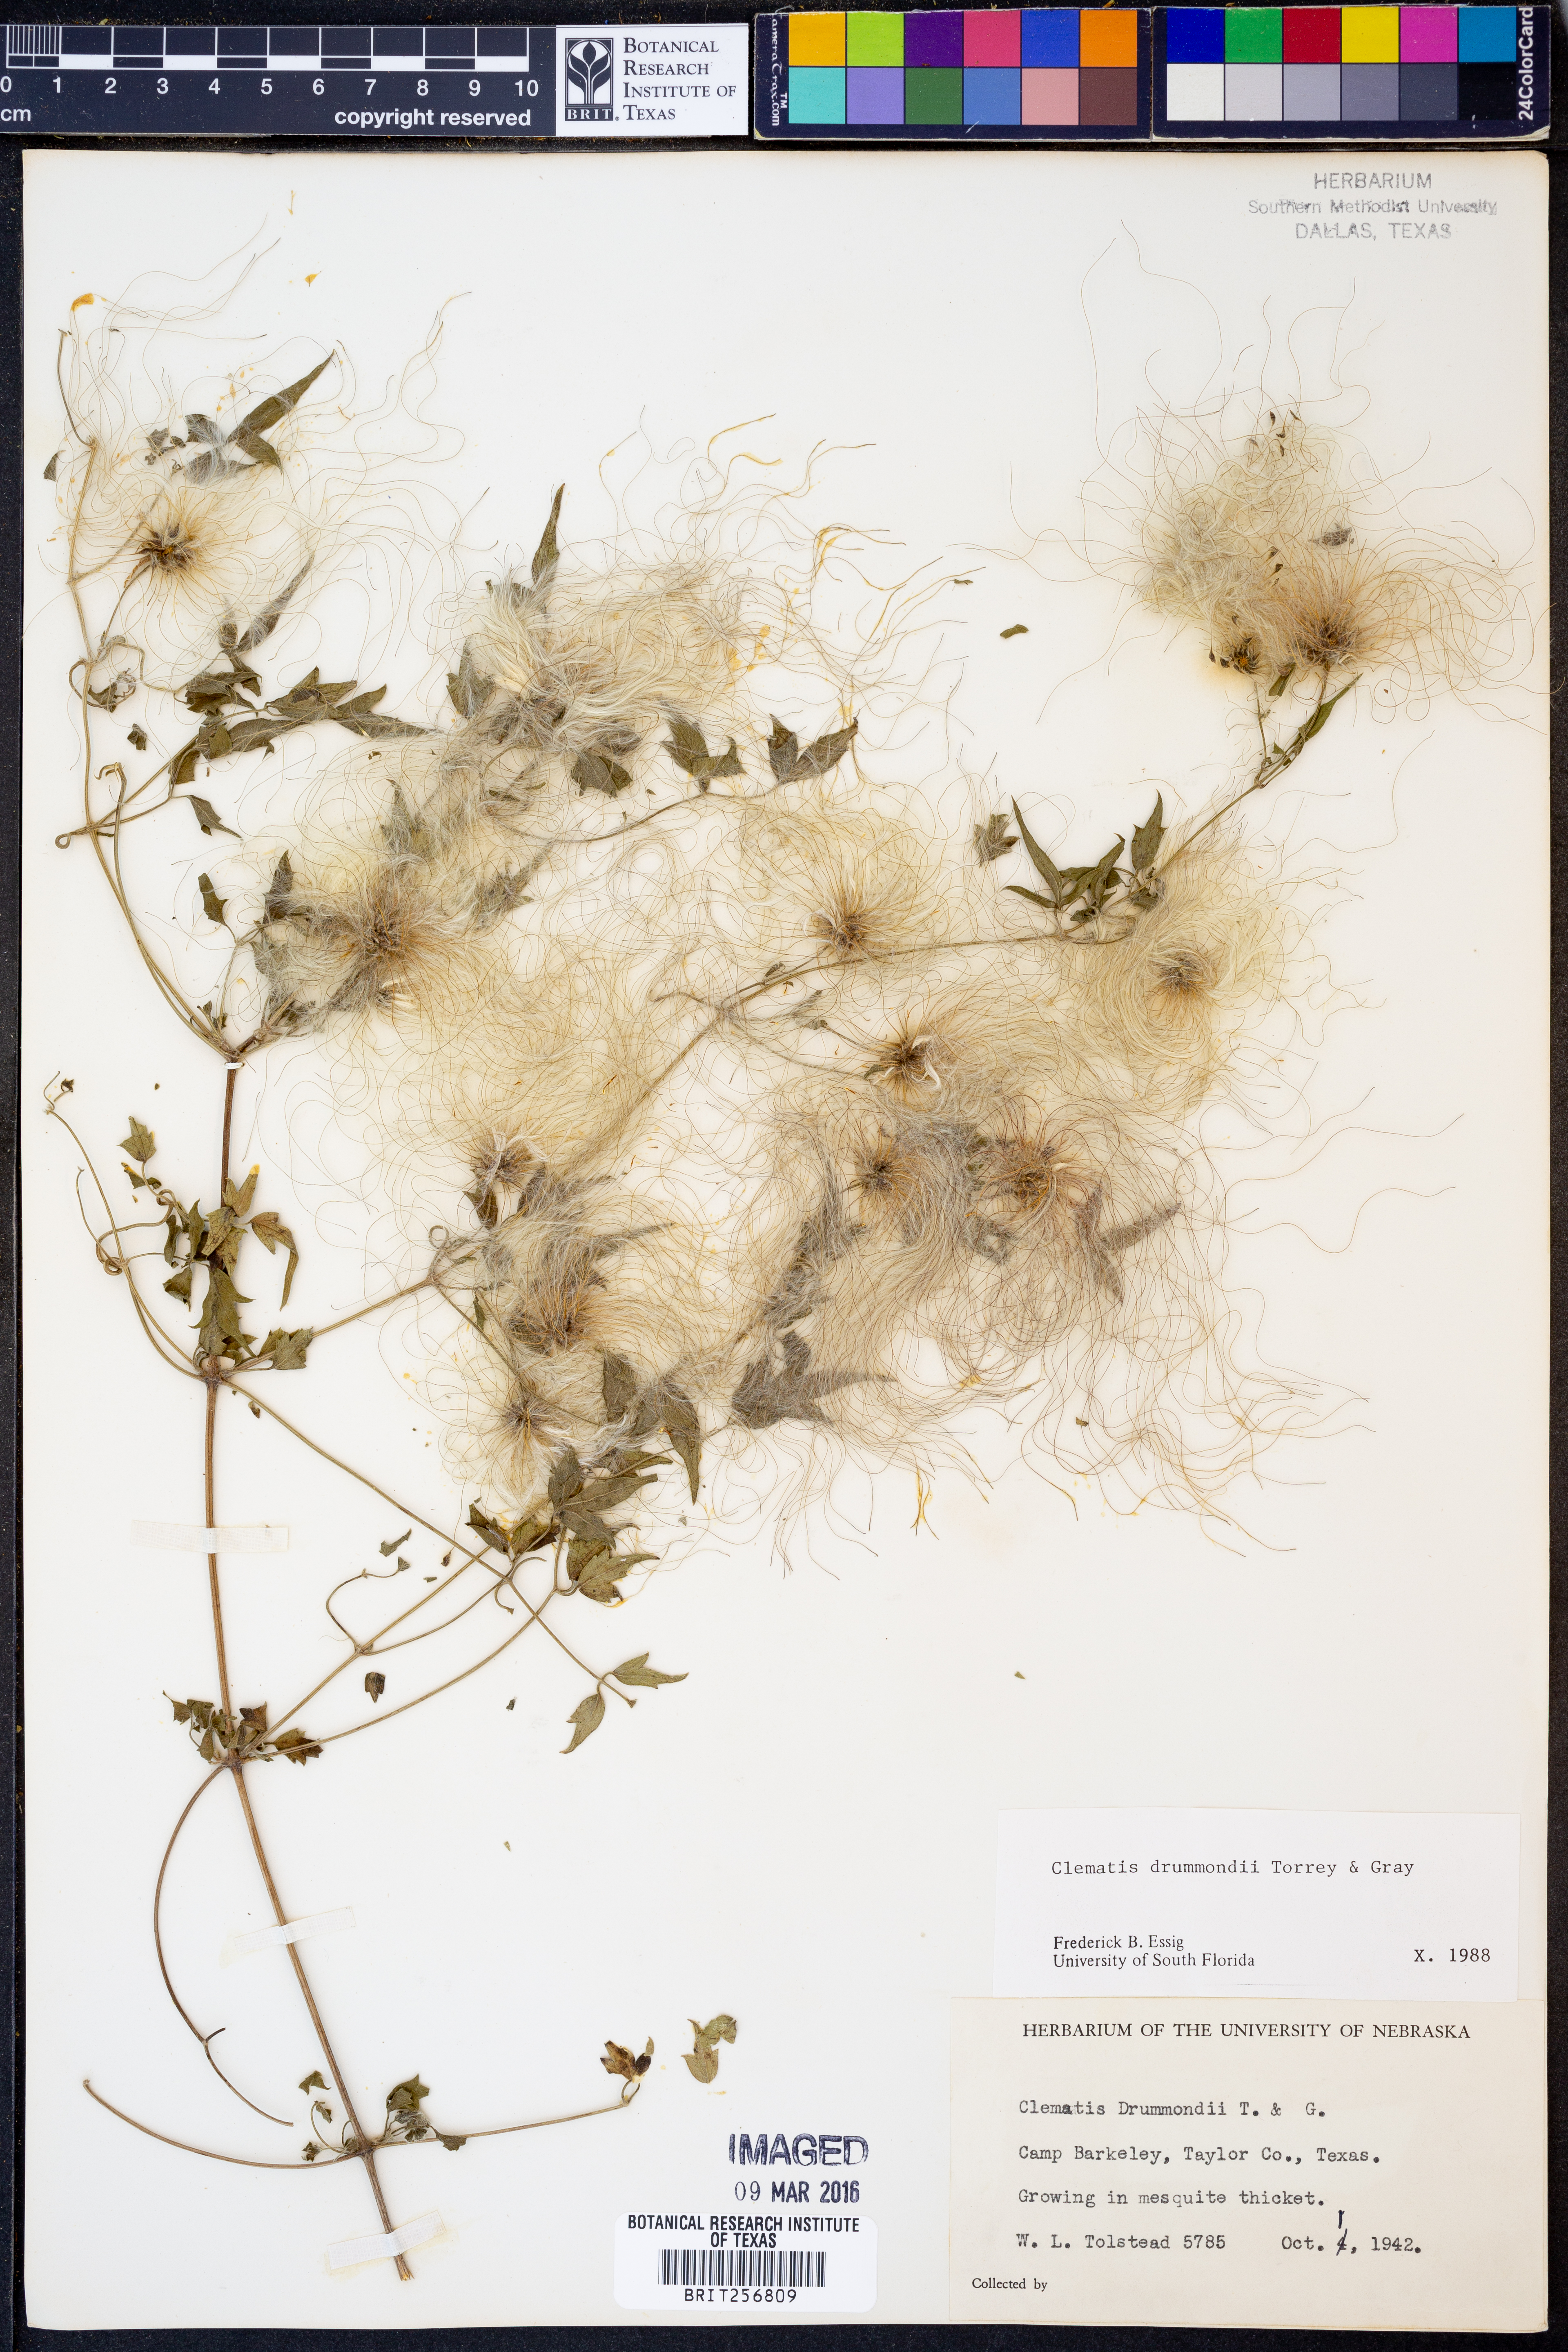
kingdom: Plantae
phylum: Tracheophyta
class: Magnoliopsida
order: Ranunculales
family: Ranunculaceae
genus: Clematis
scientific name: Clematis drummondii
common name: Texas virgin's bower
